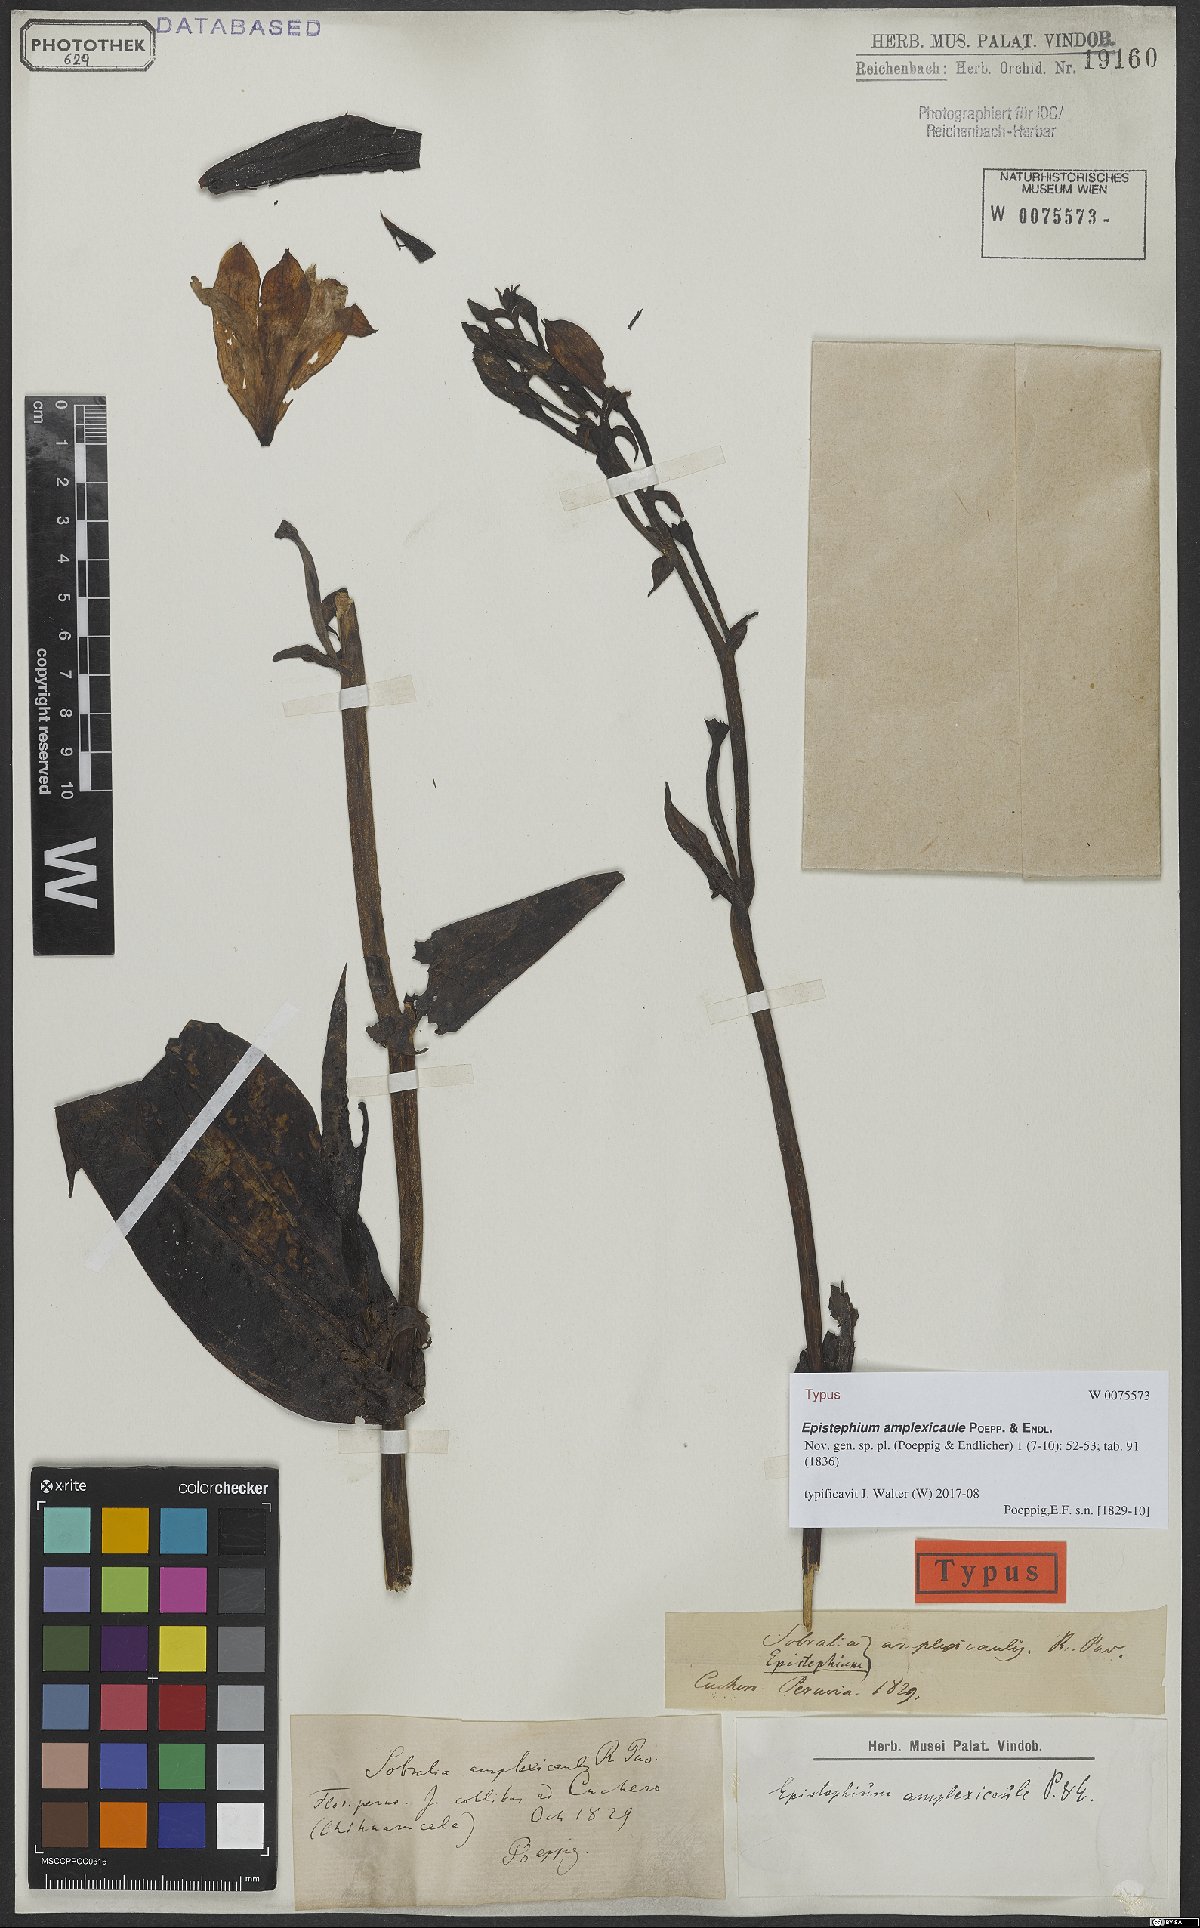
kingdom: Plantae
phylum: Tracheophyta
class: Liliopsida
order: Asparagales
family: Orchidaceae
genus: Epistephium
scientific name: Epistephium amplexicaule
